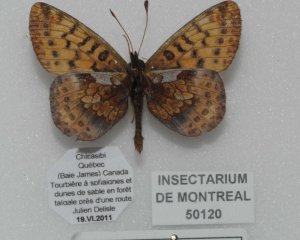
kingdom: Animalia
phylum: Arthropoda
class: Insecta
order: Lepidoptera
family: Nymphalidae
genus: Boloria
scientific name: Boloria frigga
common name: Frigga Fritillary
